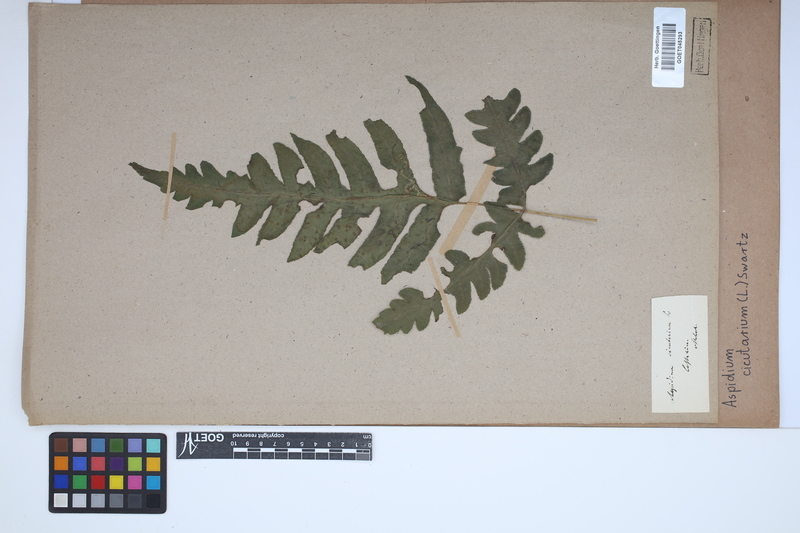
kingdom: Plantae
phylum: Tracheophyta
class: Polypodiopsida
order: Polypodiales
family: Tectariaceae
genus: Tectaria
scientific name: Tectaria cicutaria
